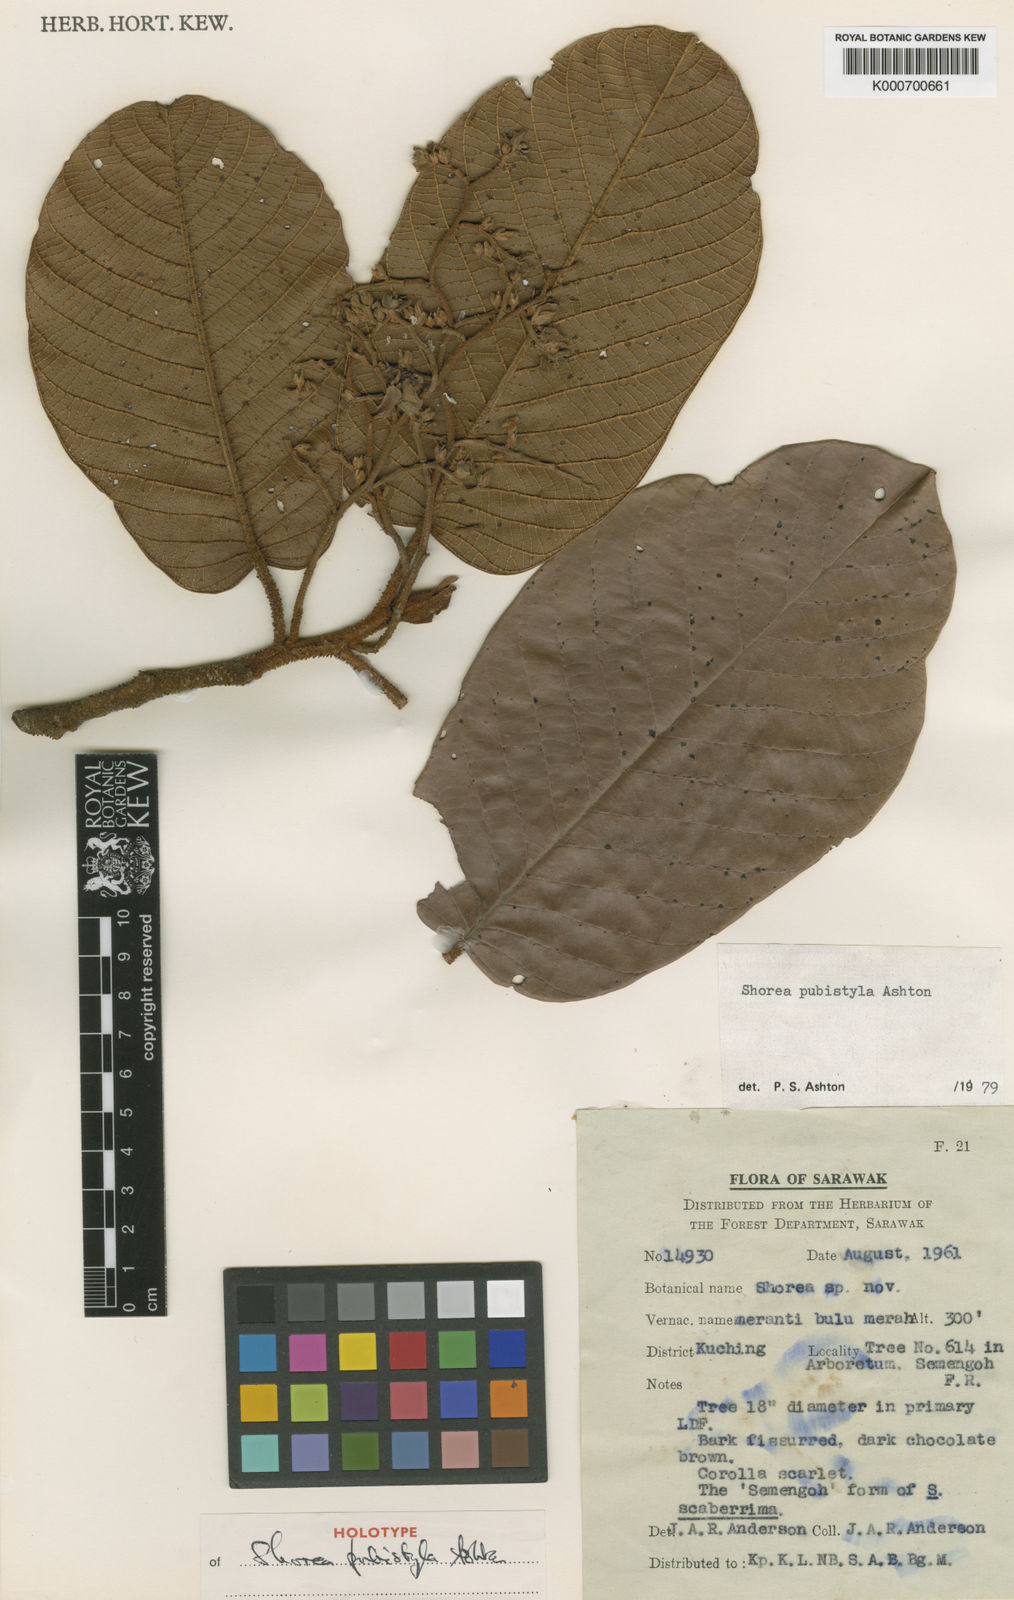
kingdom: Plantae
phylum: Tracheophyta
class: Magnoliopsida
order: Malvales
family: Dipterocarpaceae
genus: Shorea
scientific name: Shorea pubistyla
